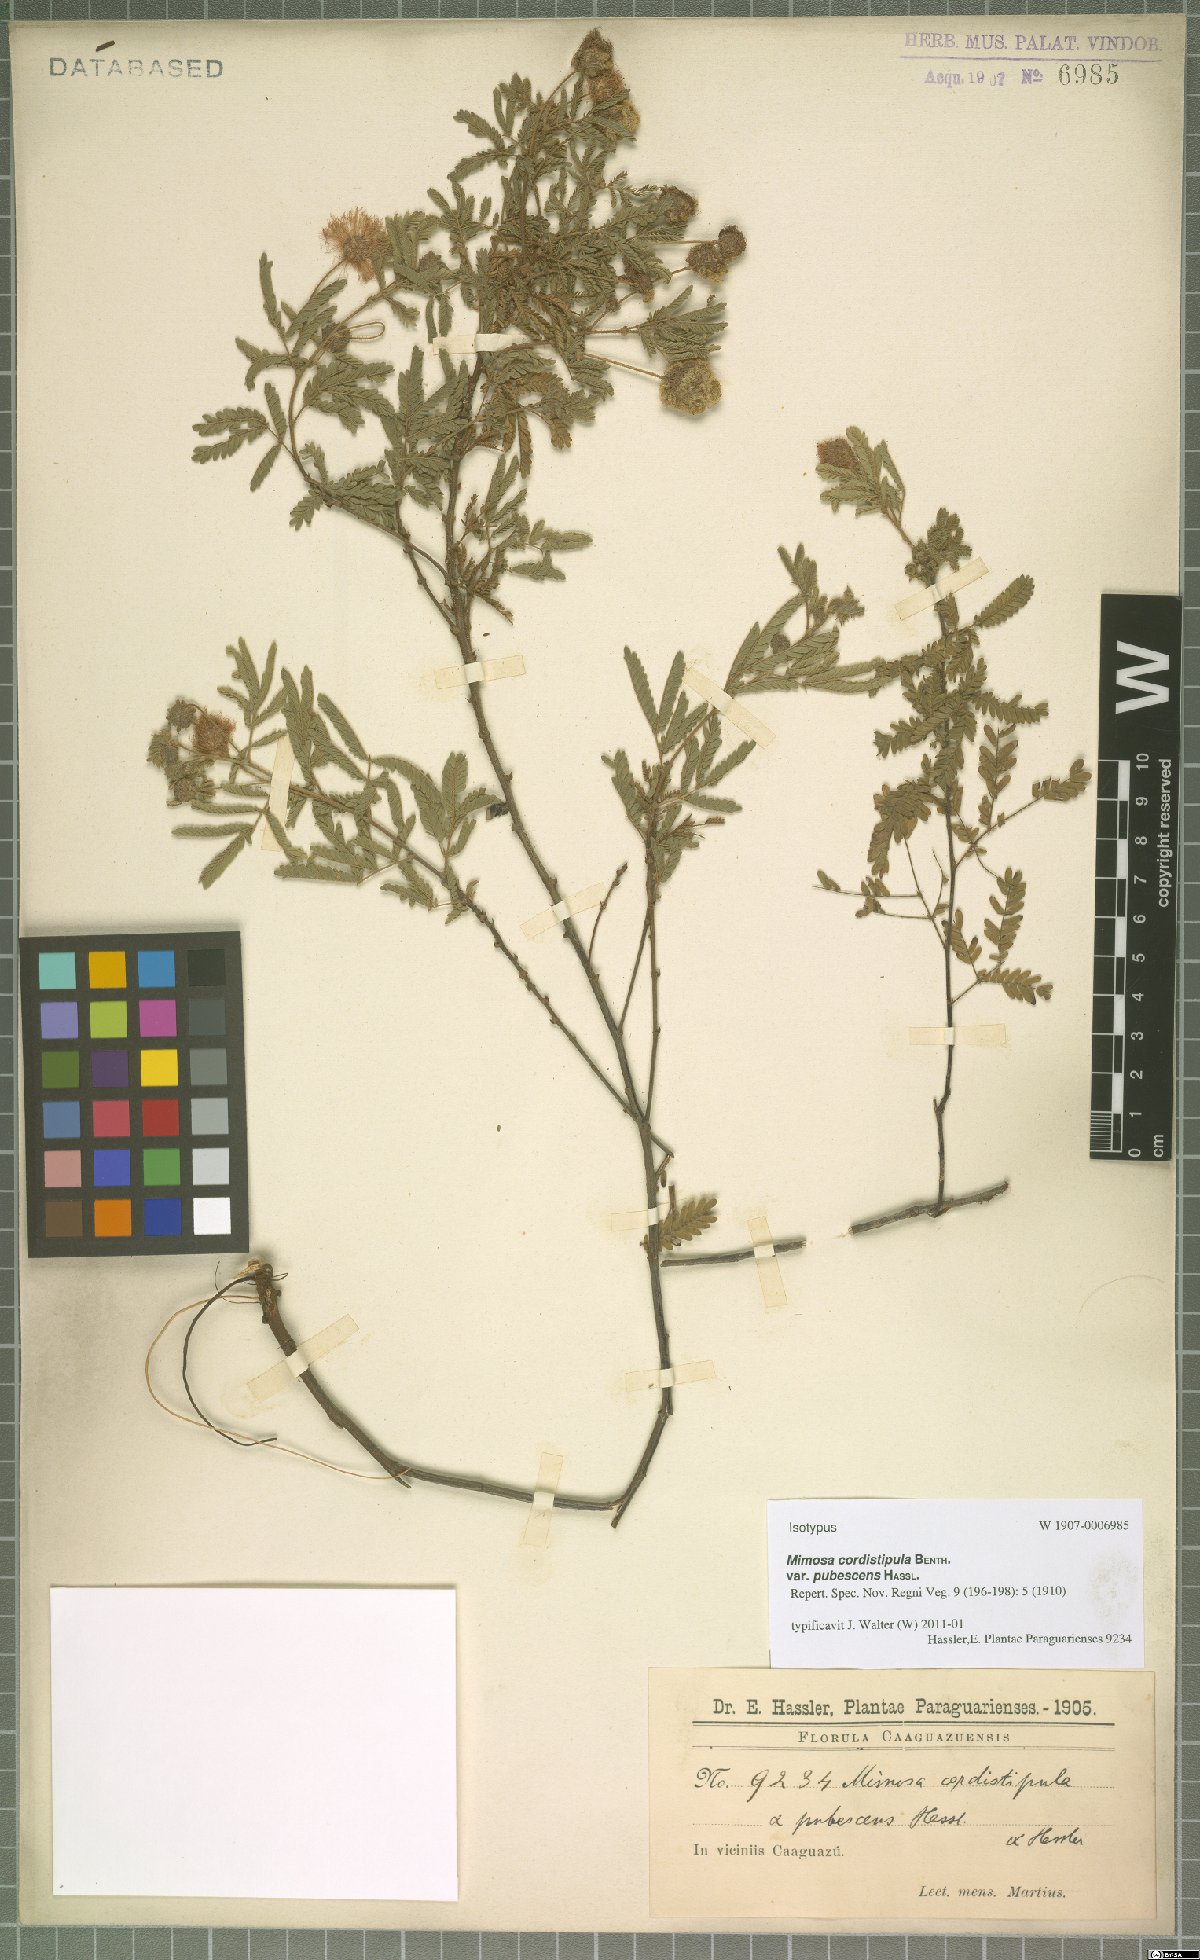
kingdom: Plantae
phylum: Tracheophyta
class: Magnoliopsida
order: Fabales
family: Fabaceae
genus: Mimosa
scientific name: Mimosa paraguariae
